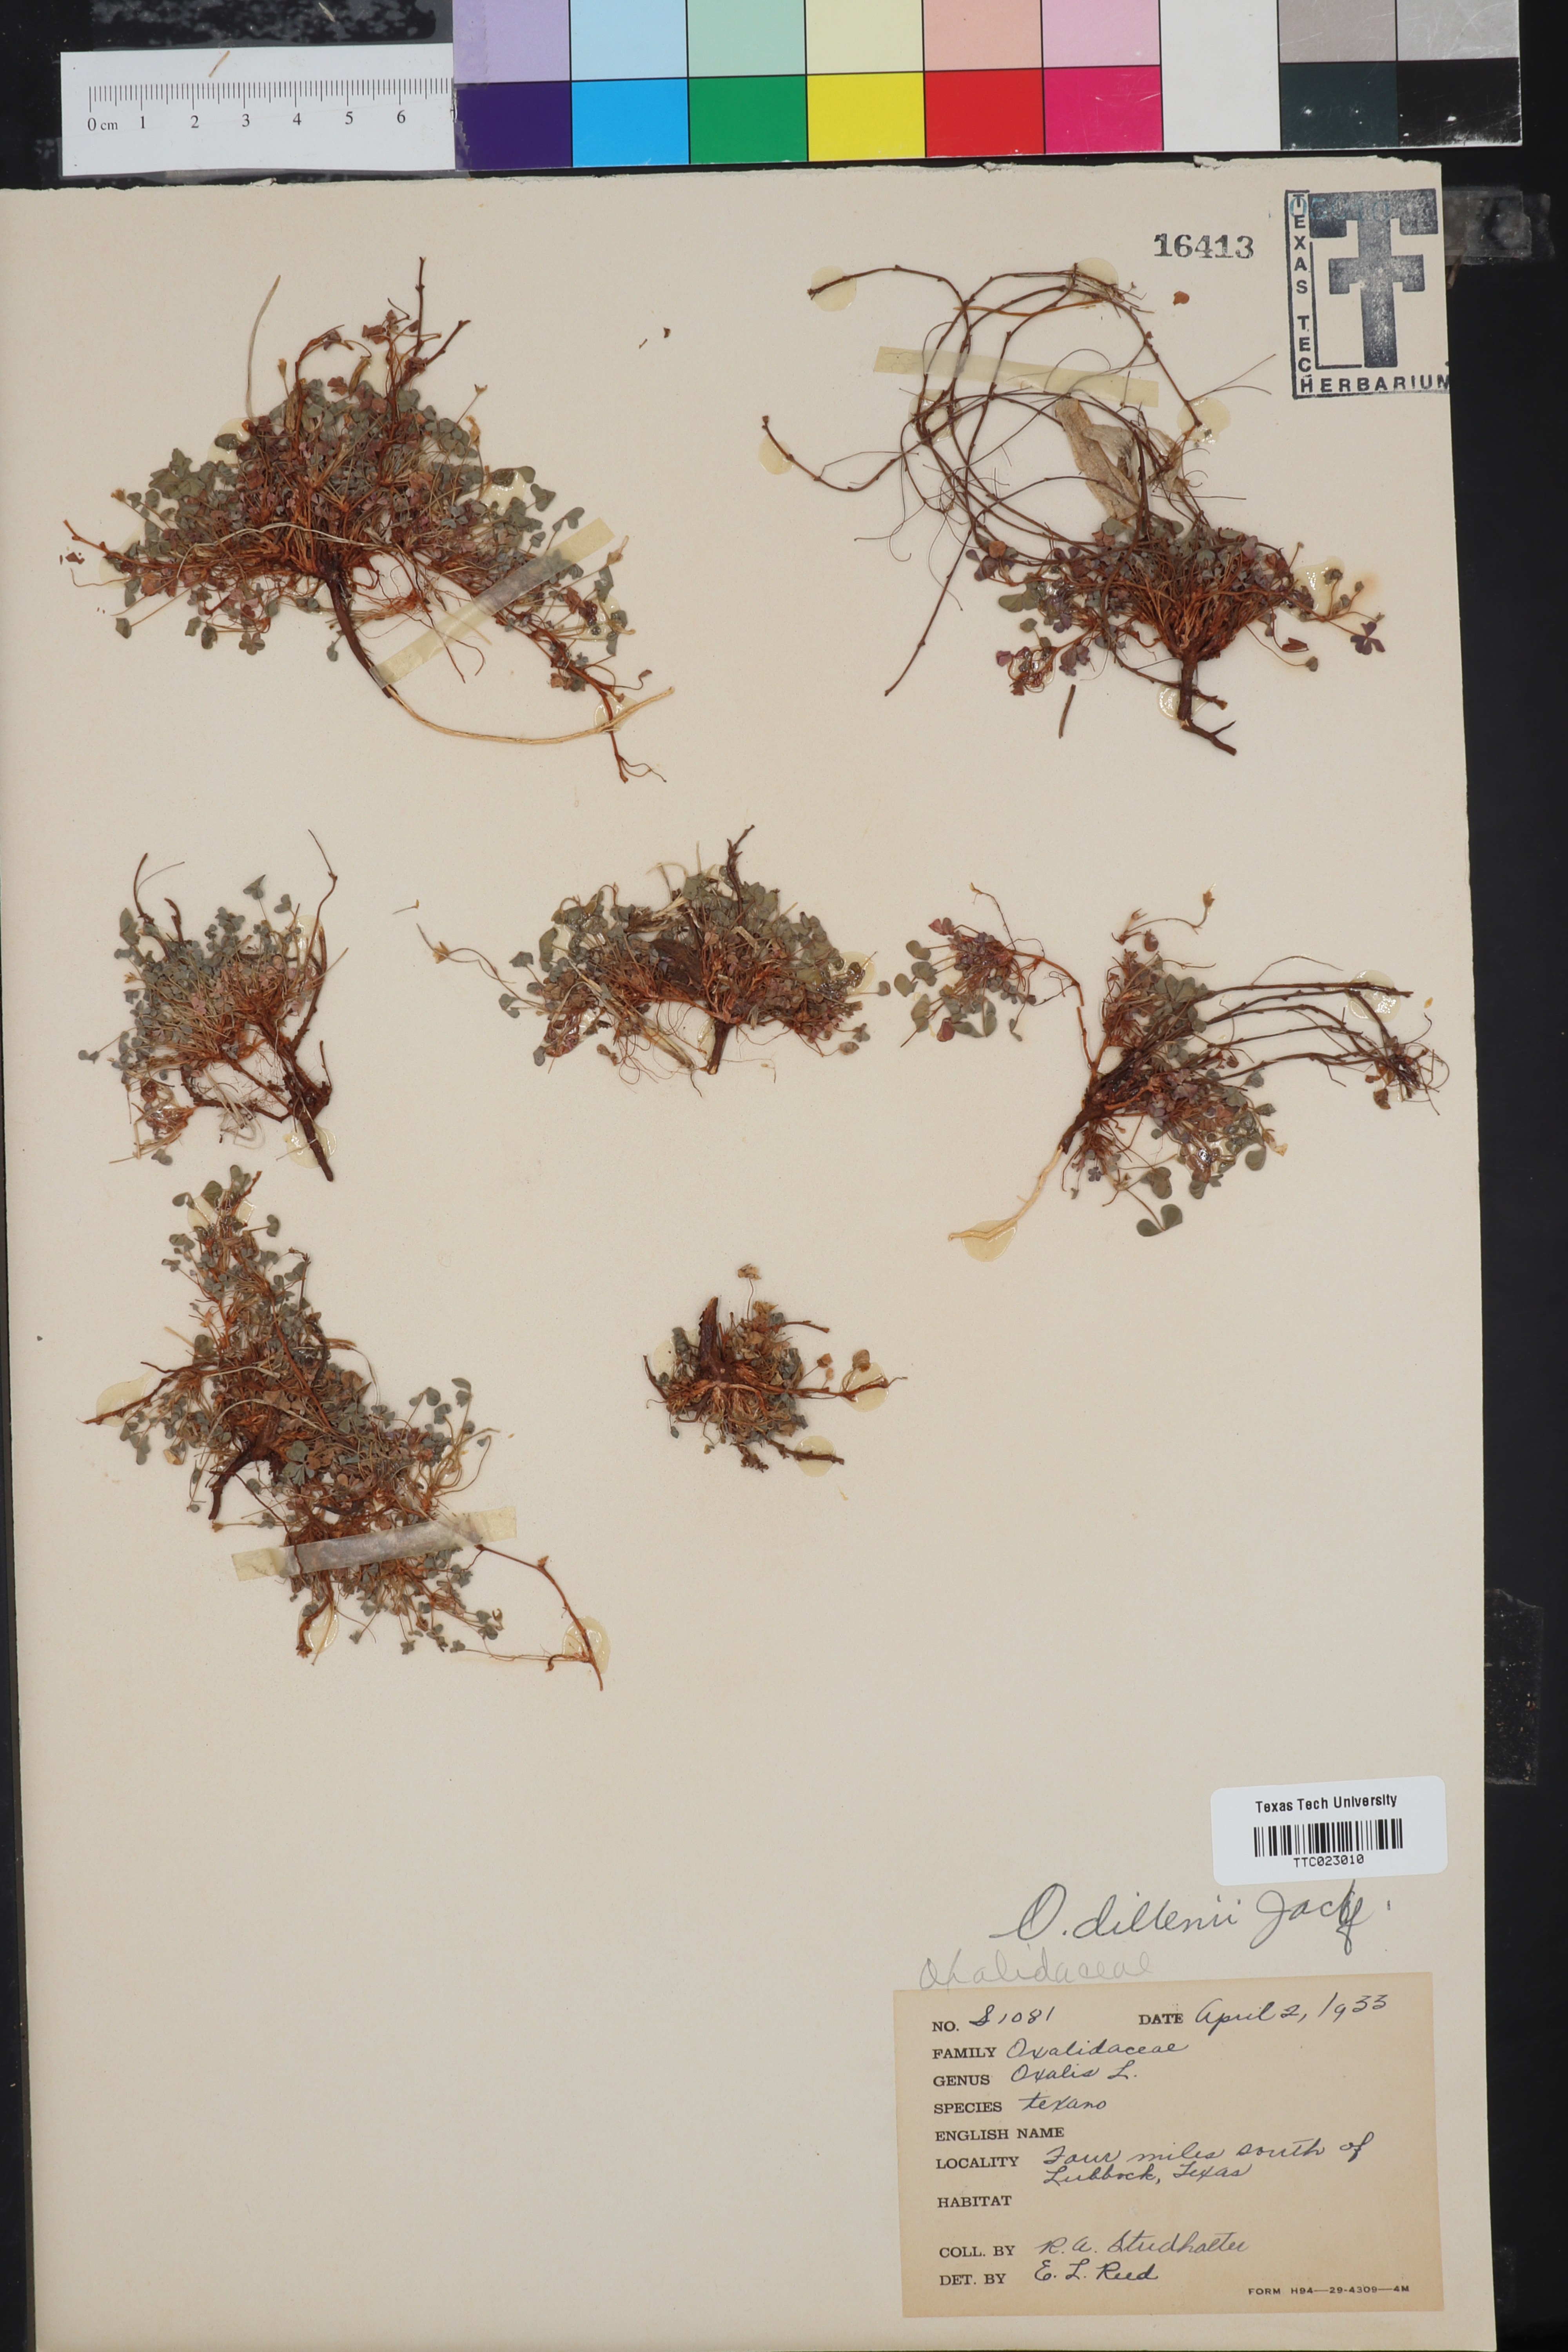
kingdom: Plantae
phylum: Tracheophyta
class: Magnoliopsida
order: Oxalidales
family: Oxalidaceae
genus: Oxalis
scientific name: Oxalis
